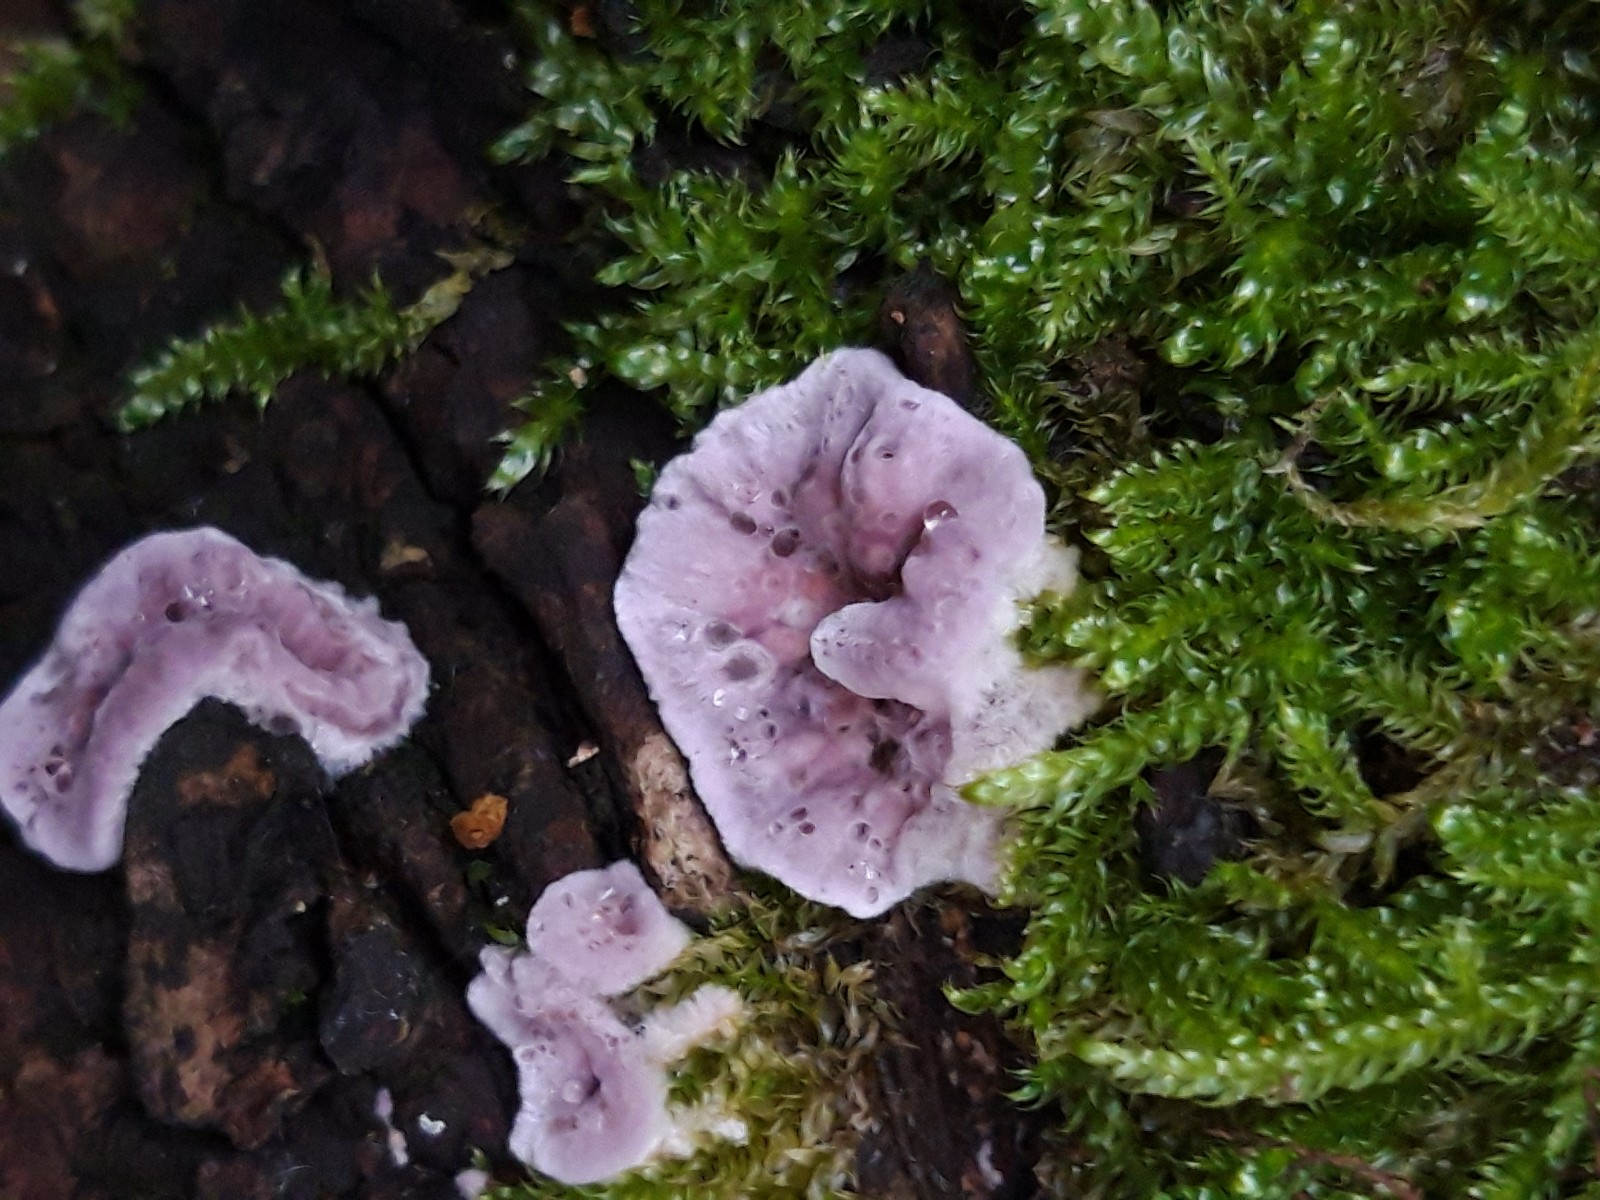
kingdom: Fungi
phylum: Basidiomycota
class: Agaricomycetes
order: Agaricales
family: Cyphellaceae
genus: Chondrostereum
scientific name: Chondrostereum purpureum
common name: purpurlædersvamp
